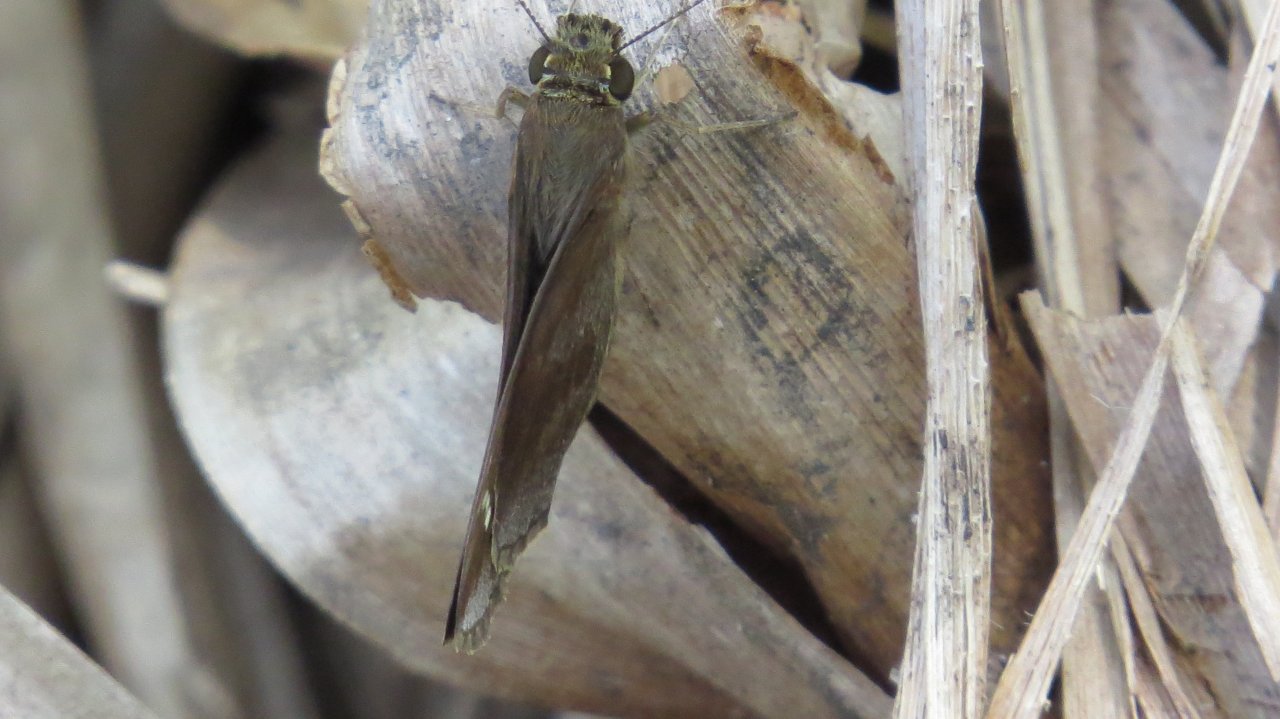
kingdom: Animalia
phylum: Arthropoda
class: Insecta
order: Lepidoptera
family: Hesperiidae
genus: Lerema
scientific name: Lerema accius
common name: Clouded Skipper
